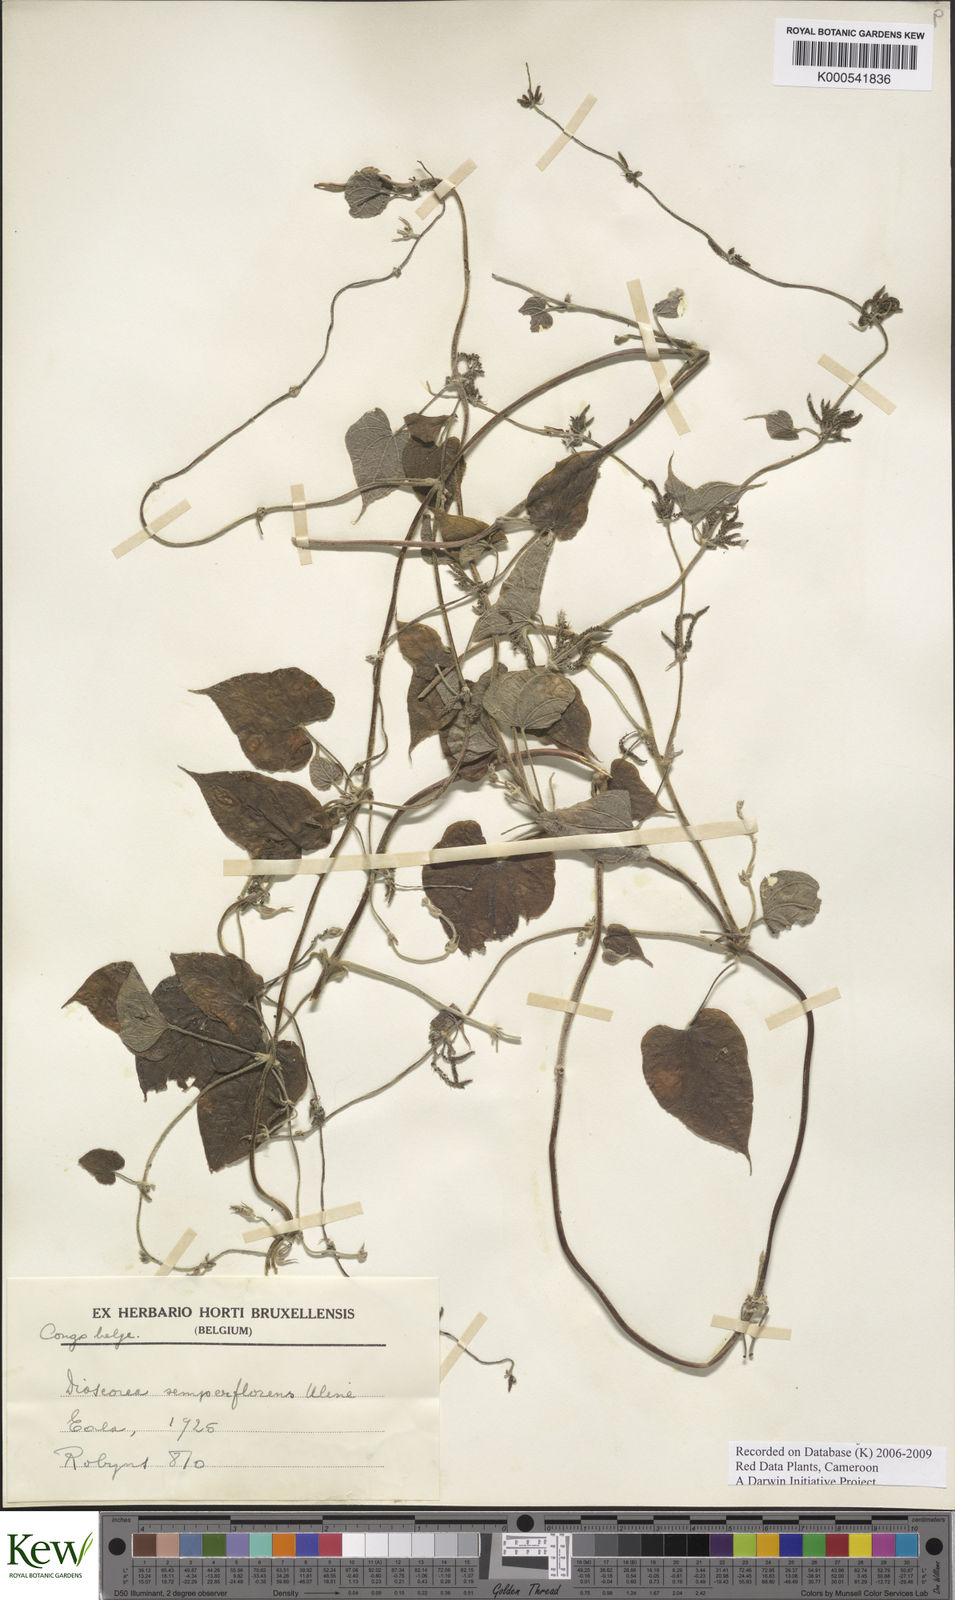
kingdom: Plantae
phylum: Tracheophyta
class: Liliopsida
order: Dioscoreales
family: Dioscoreaceae
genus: Dioscorea
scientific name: Dioscorea semperflorens
